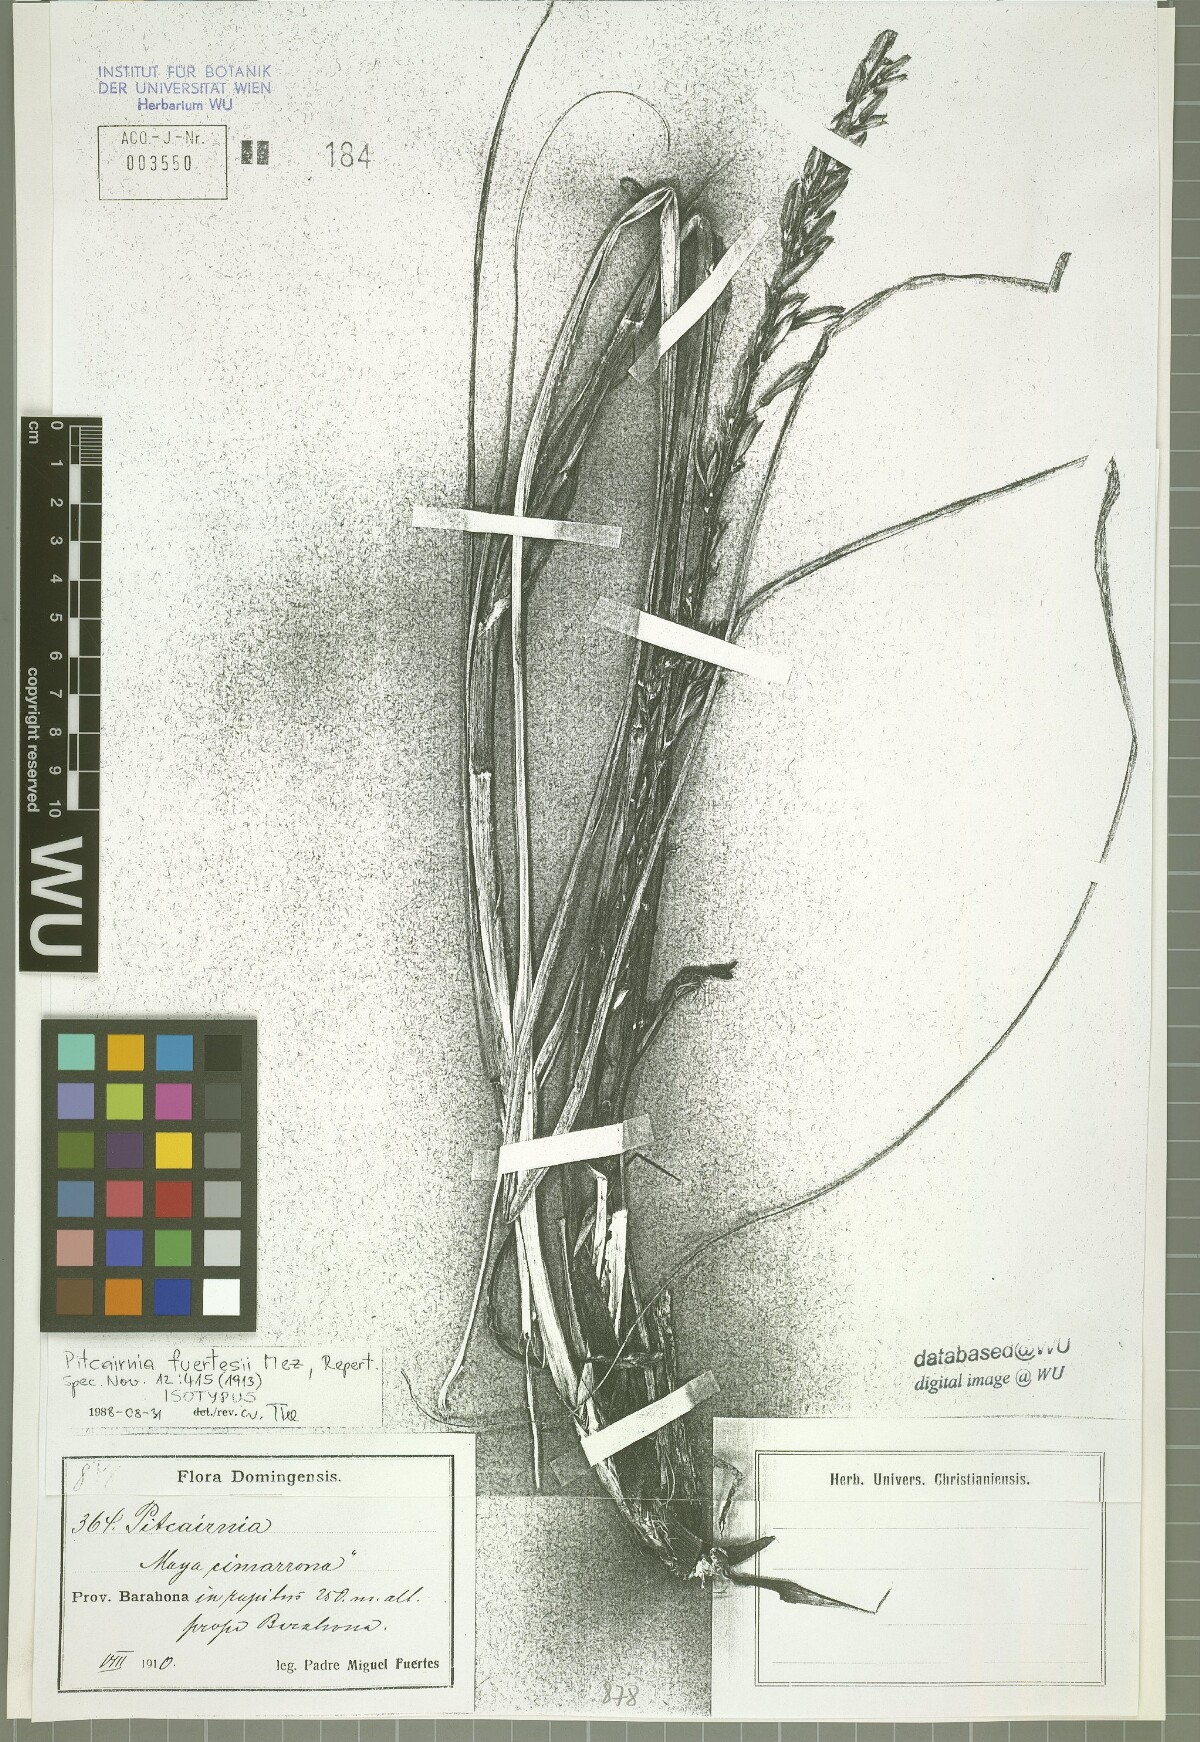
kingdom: Plantae
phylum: Tracheophyta
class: Liliopsida
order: Poales
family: Bromeliaceae
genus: Pitcairnia
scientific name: Pitcairnia fuertesii
